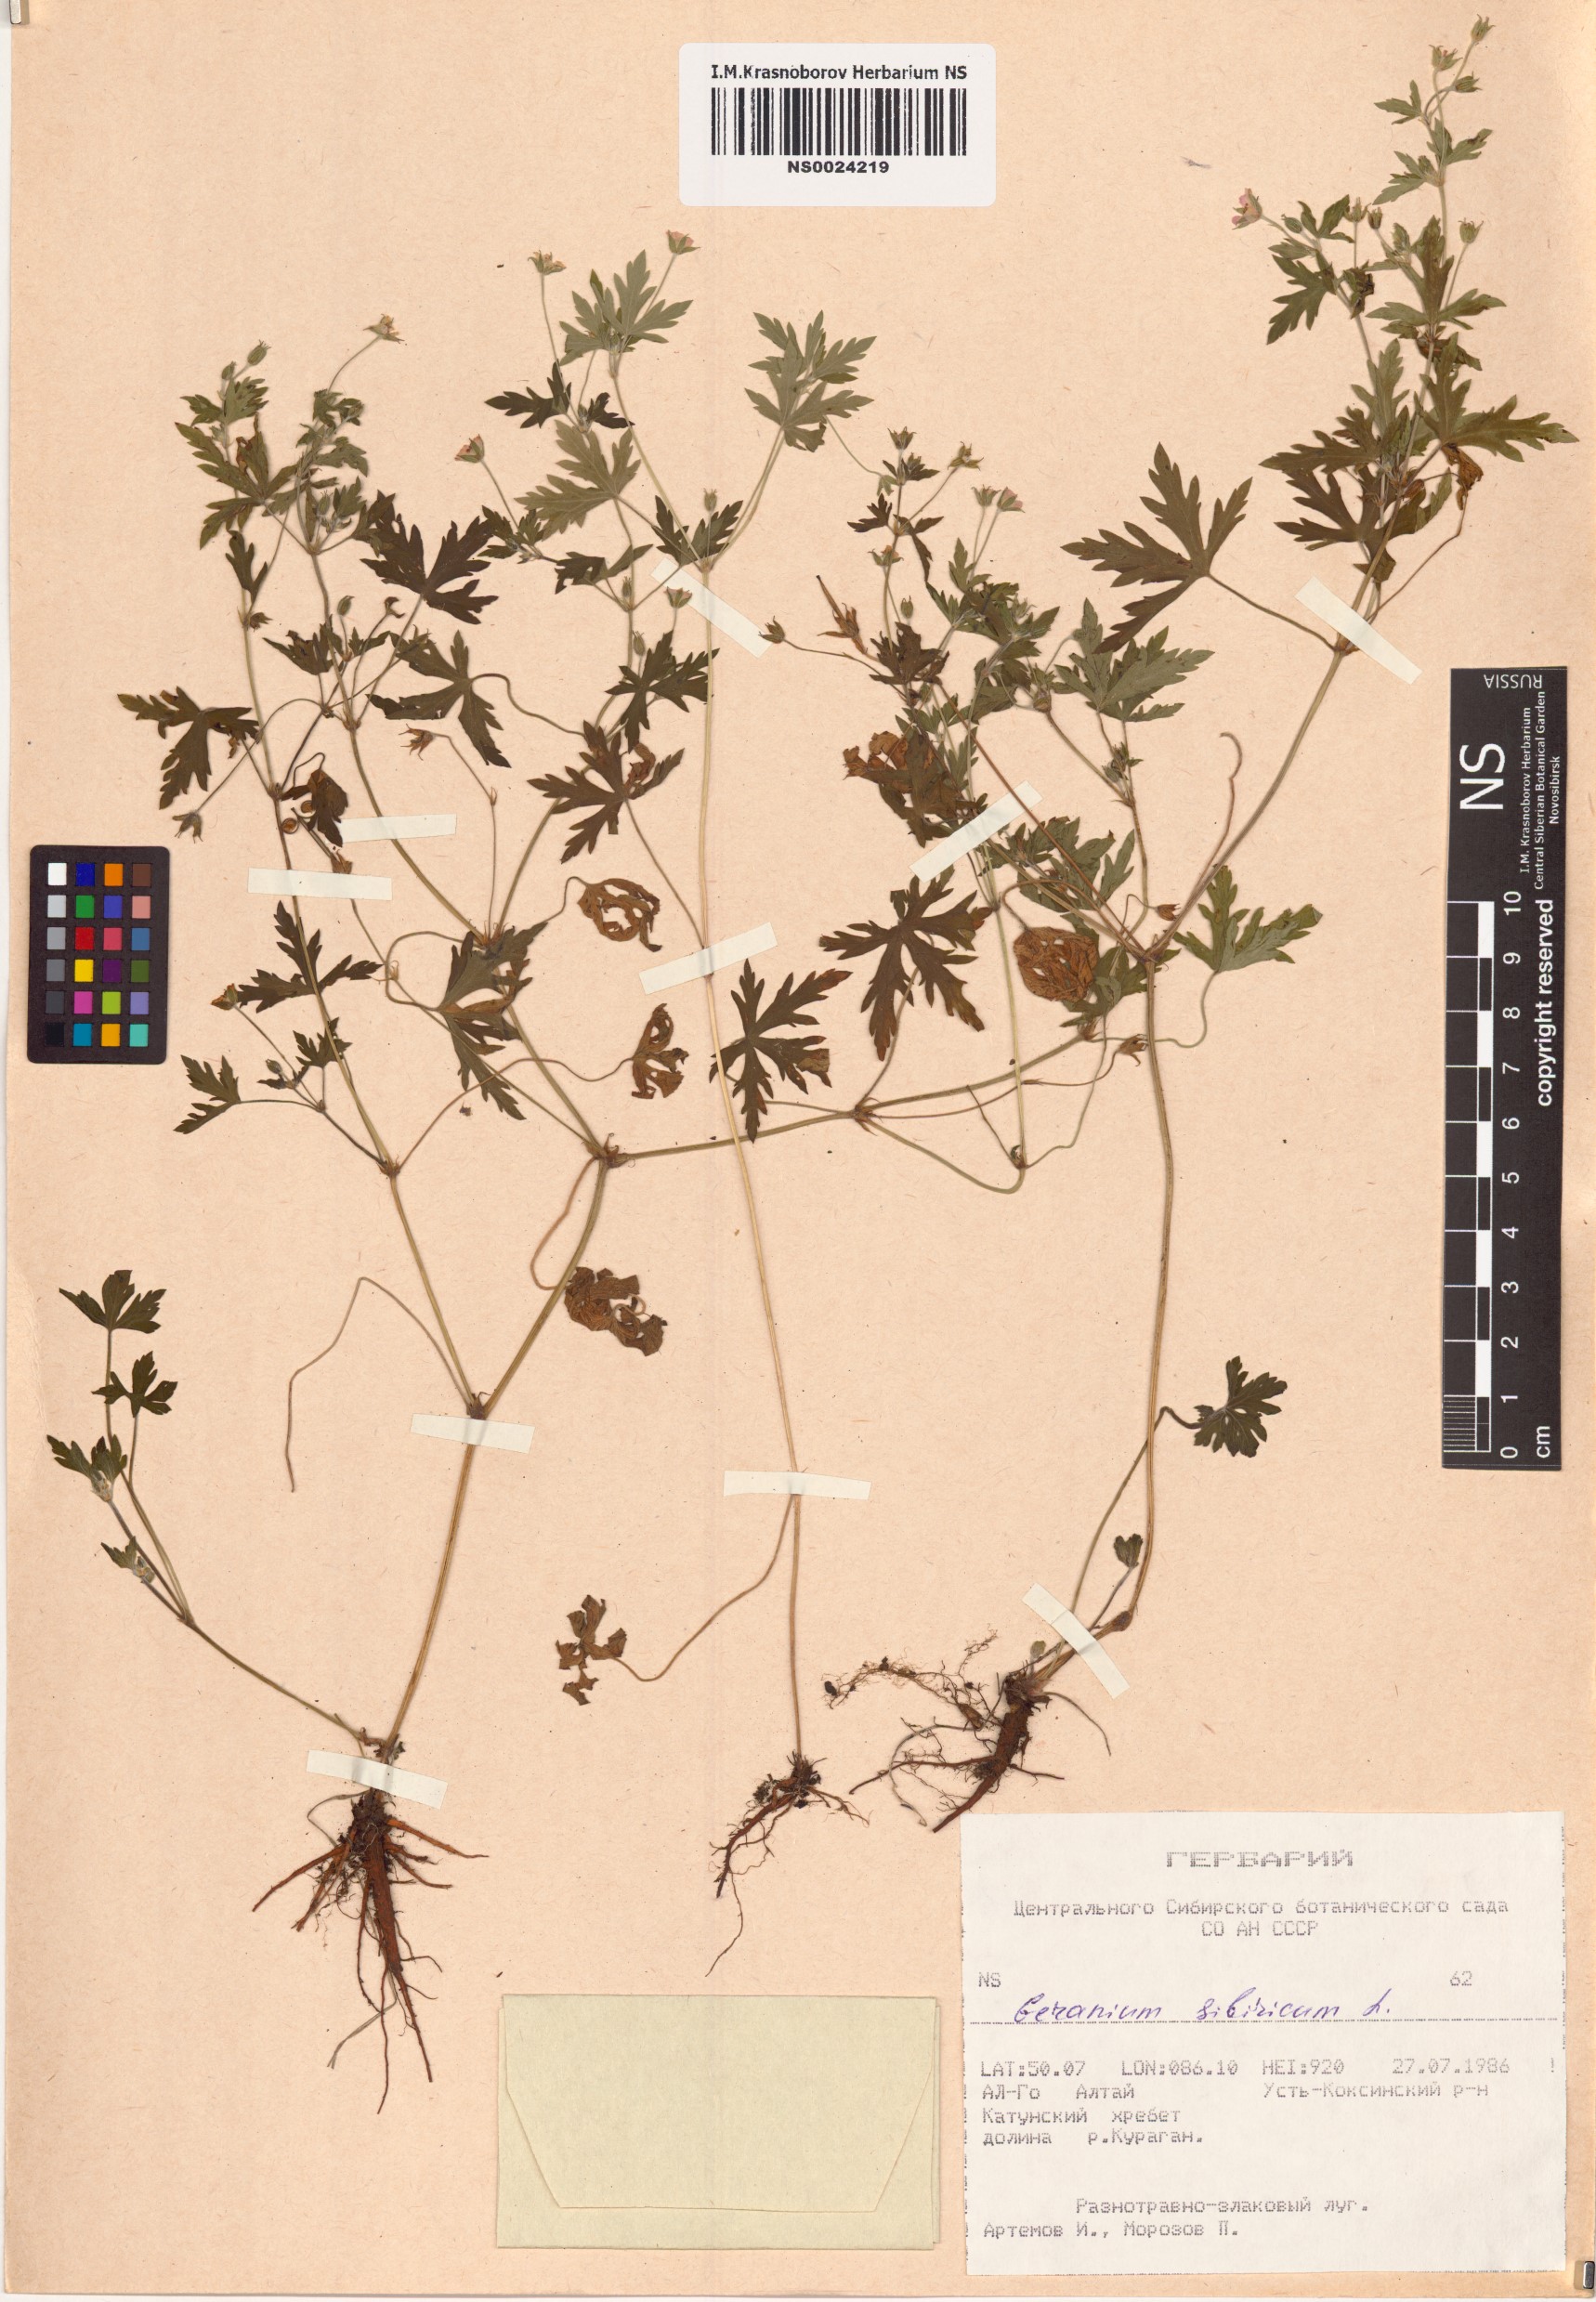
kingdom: Plantae
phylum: Tracheophyta
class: Magnoliopsida
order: Geraniales
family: Geraniaceae
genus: Geranium
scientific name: Geranium sibiricum
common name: Siberian crane's-bill
